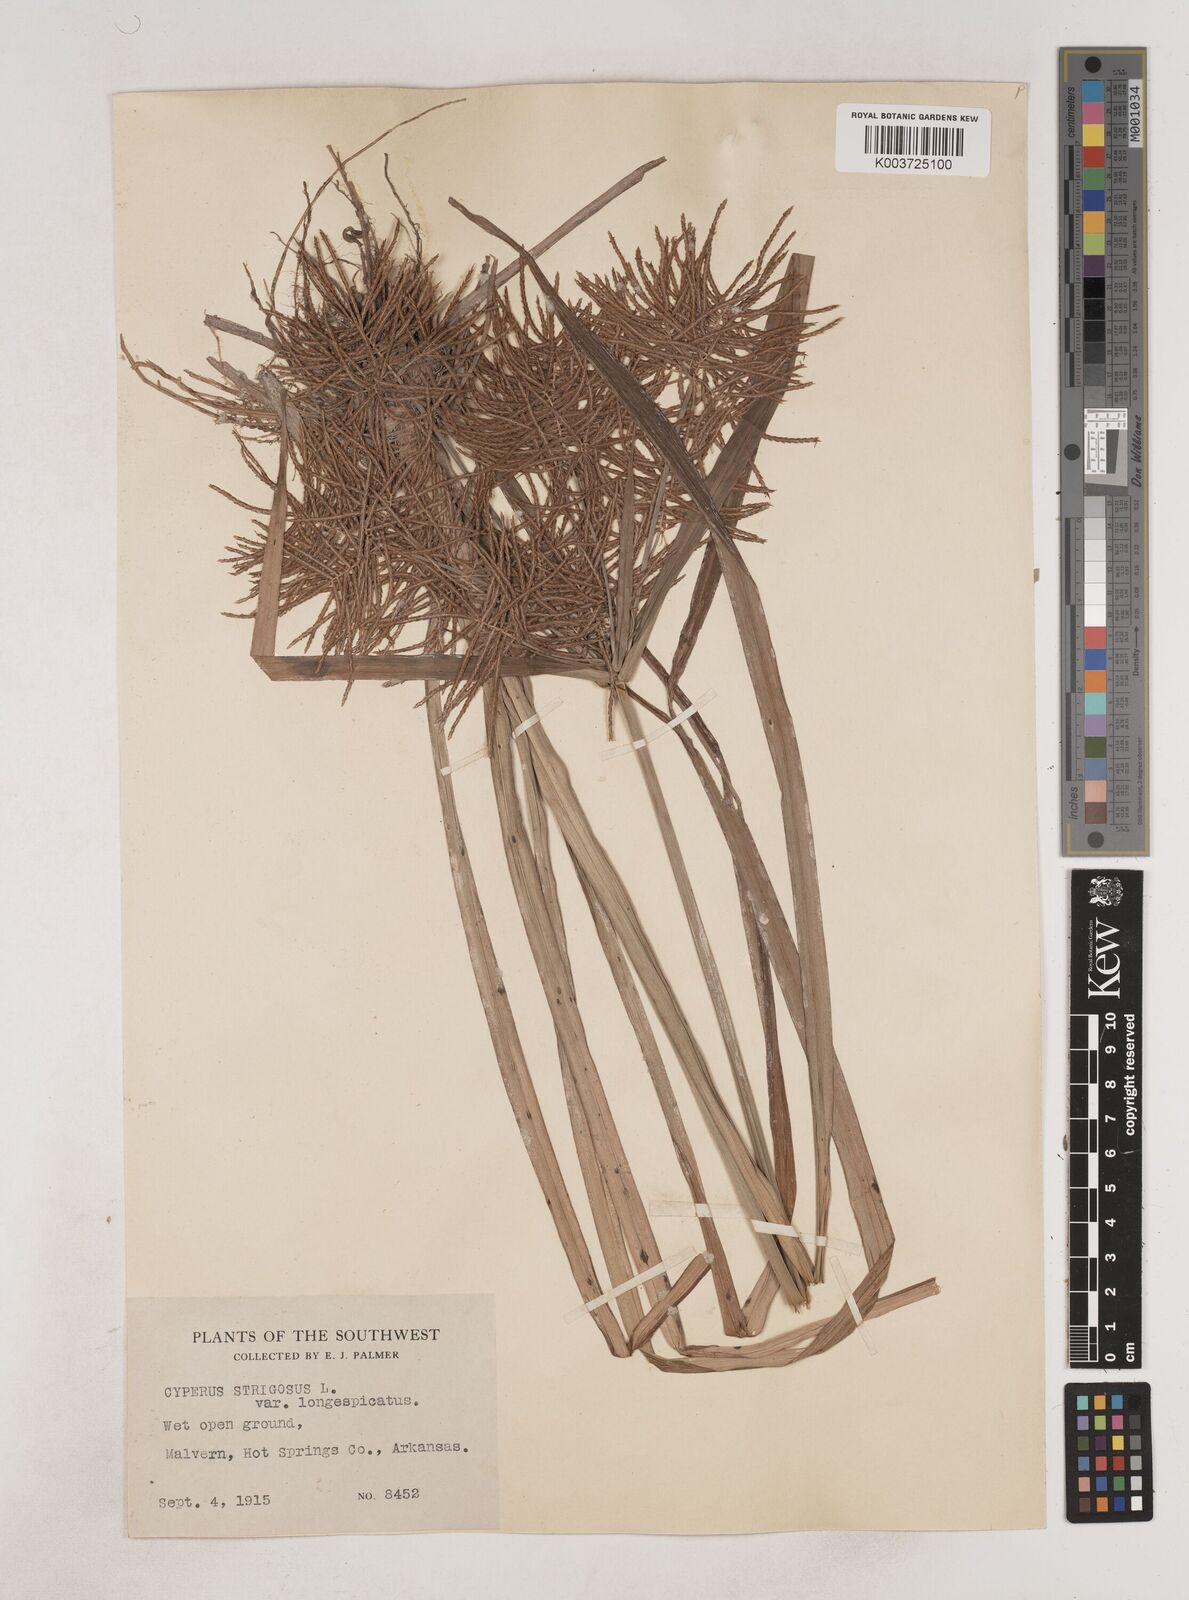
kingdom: Plantae
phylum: Tracheophyta
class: Liliopsida
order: Poales
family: Cyperaceae
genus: Cyperus
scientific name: Cyperus strigosus
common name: False nutsedge
